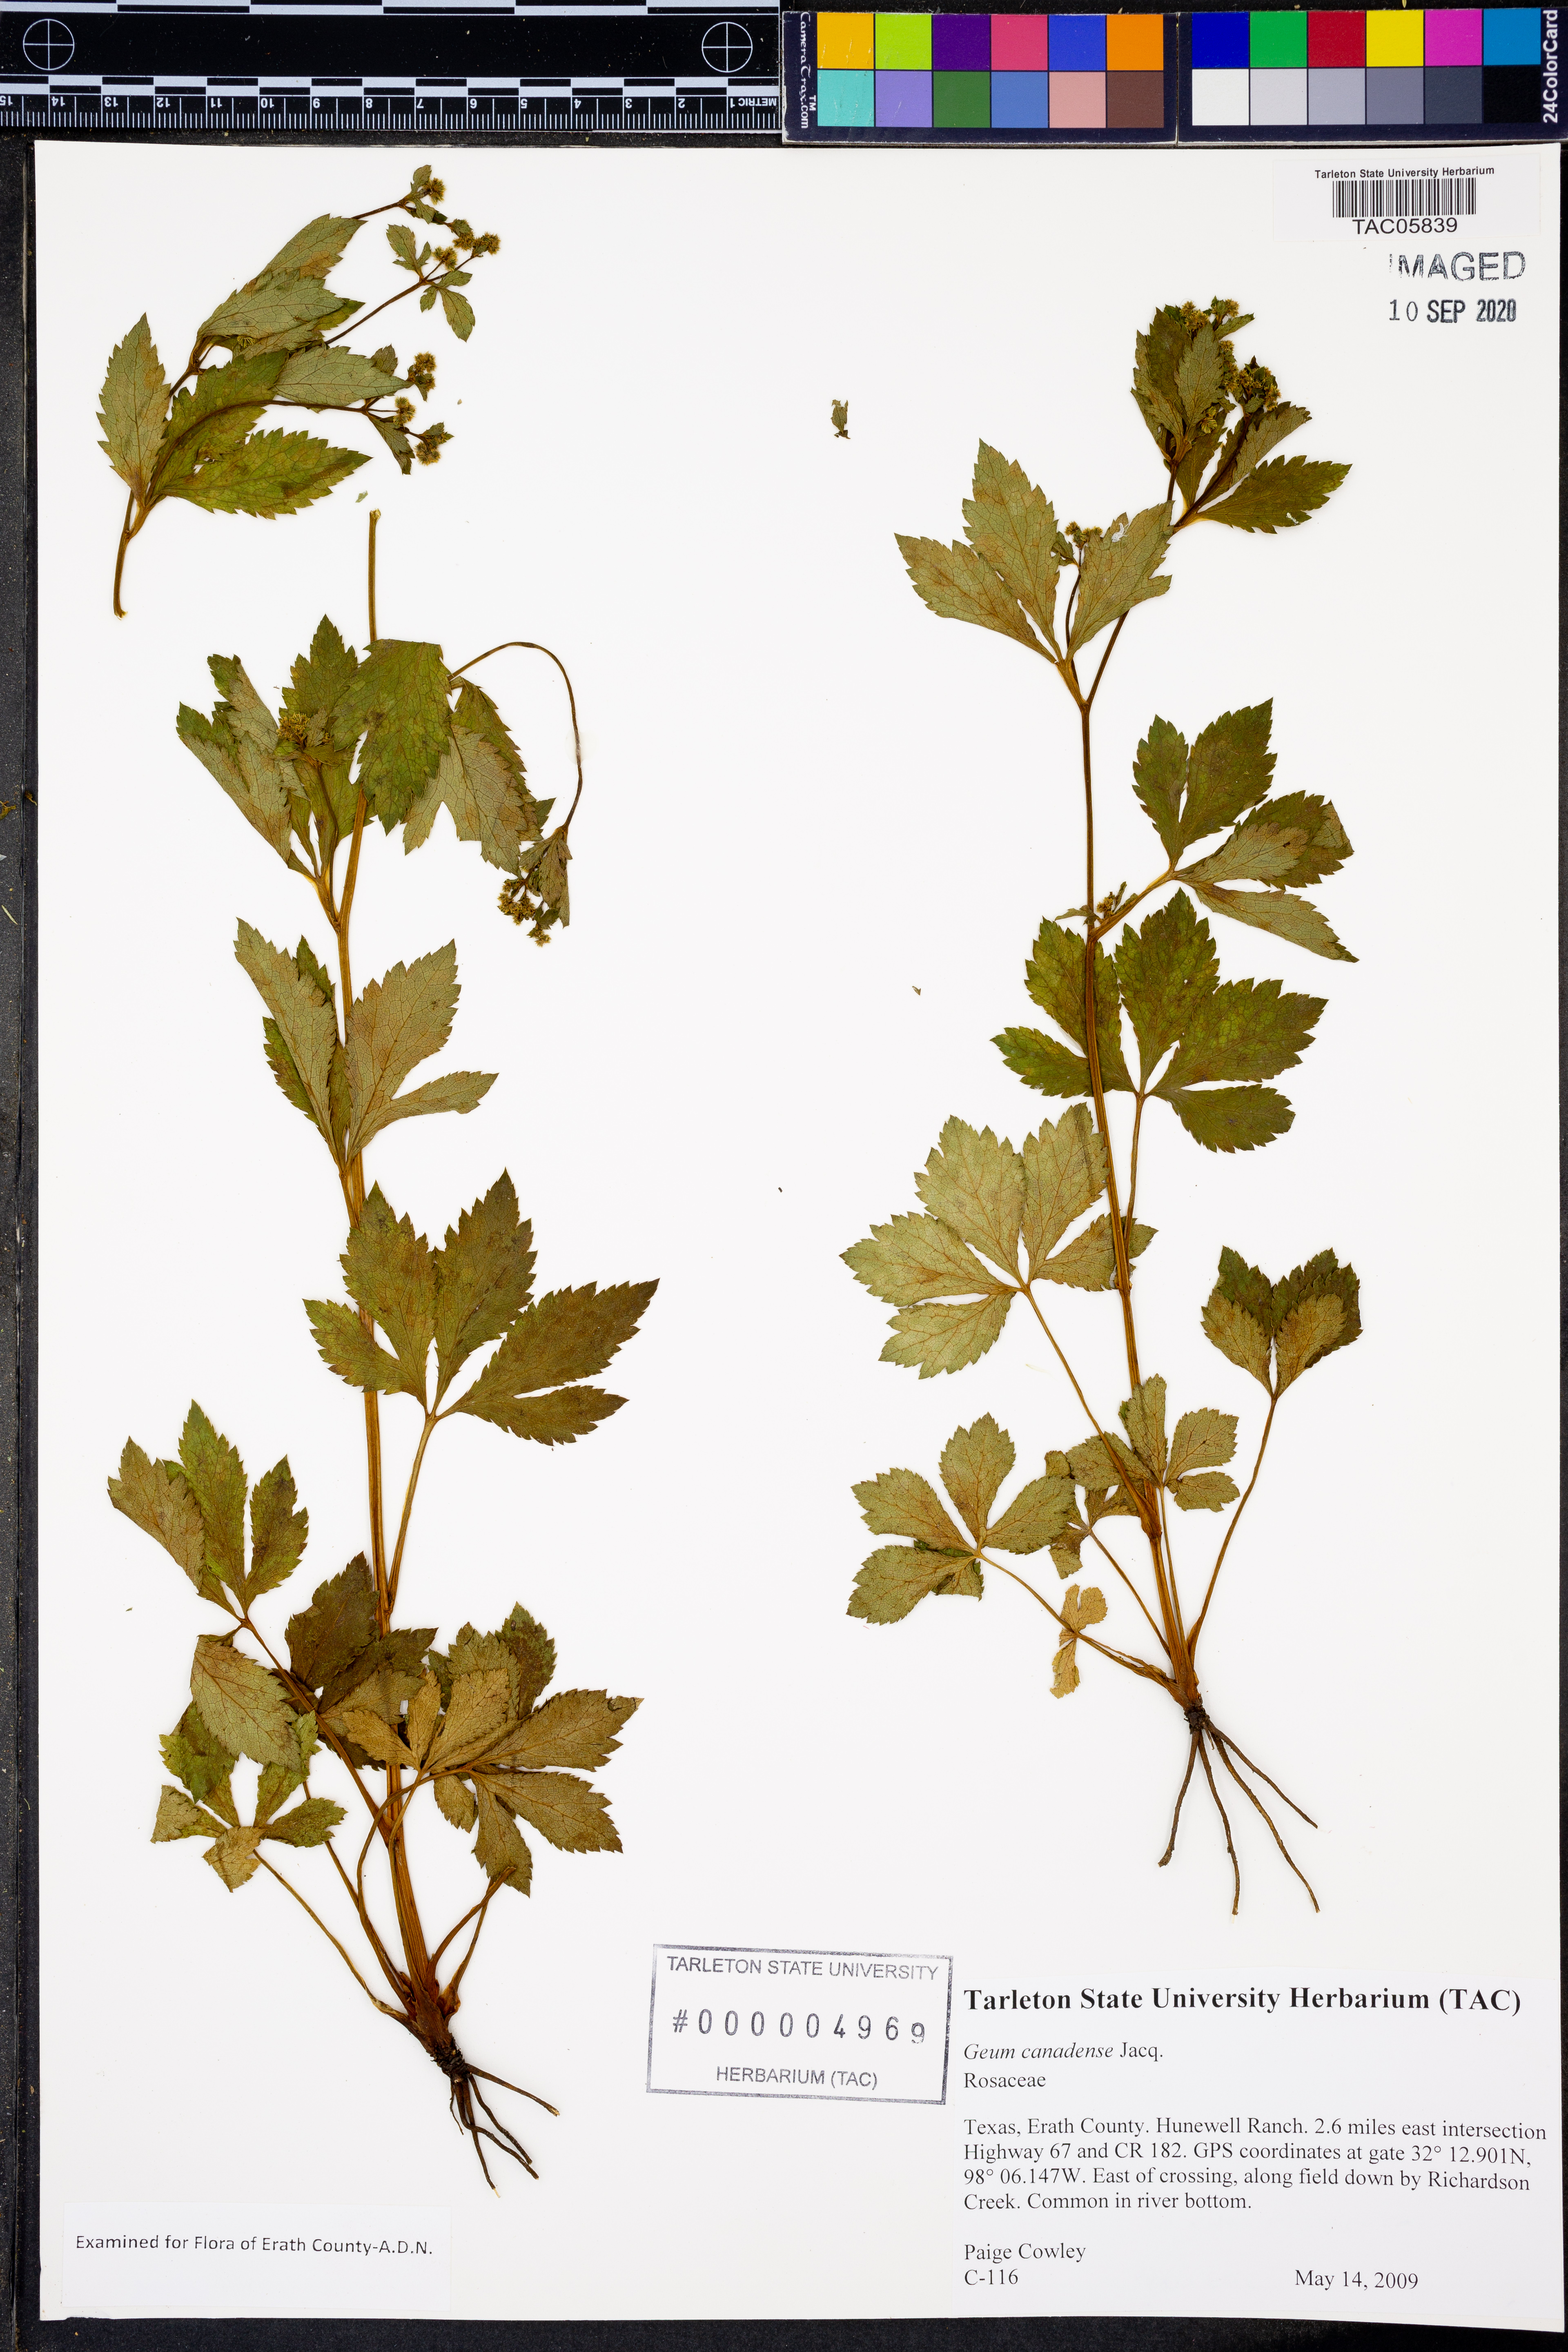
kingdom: Plantae
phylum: Tracheophyta
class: Magnoliopsida
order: Rosales
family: Rosaceae
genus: Geum
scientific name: Geum canadense
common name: White avens
